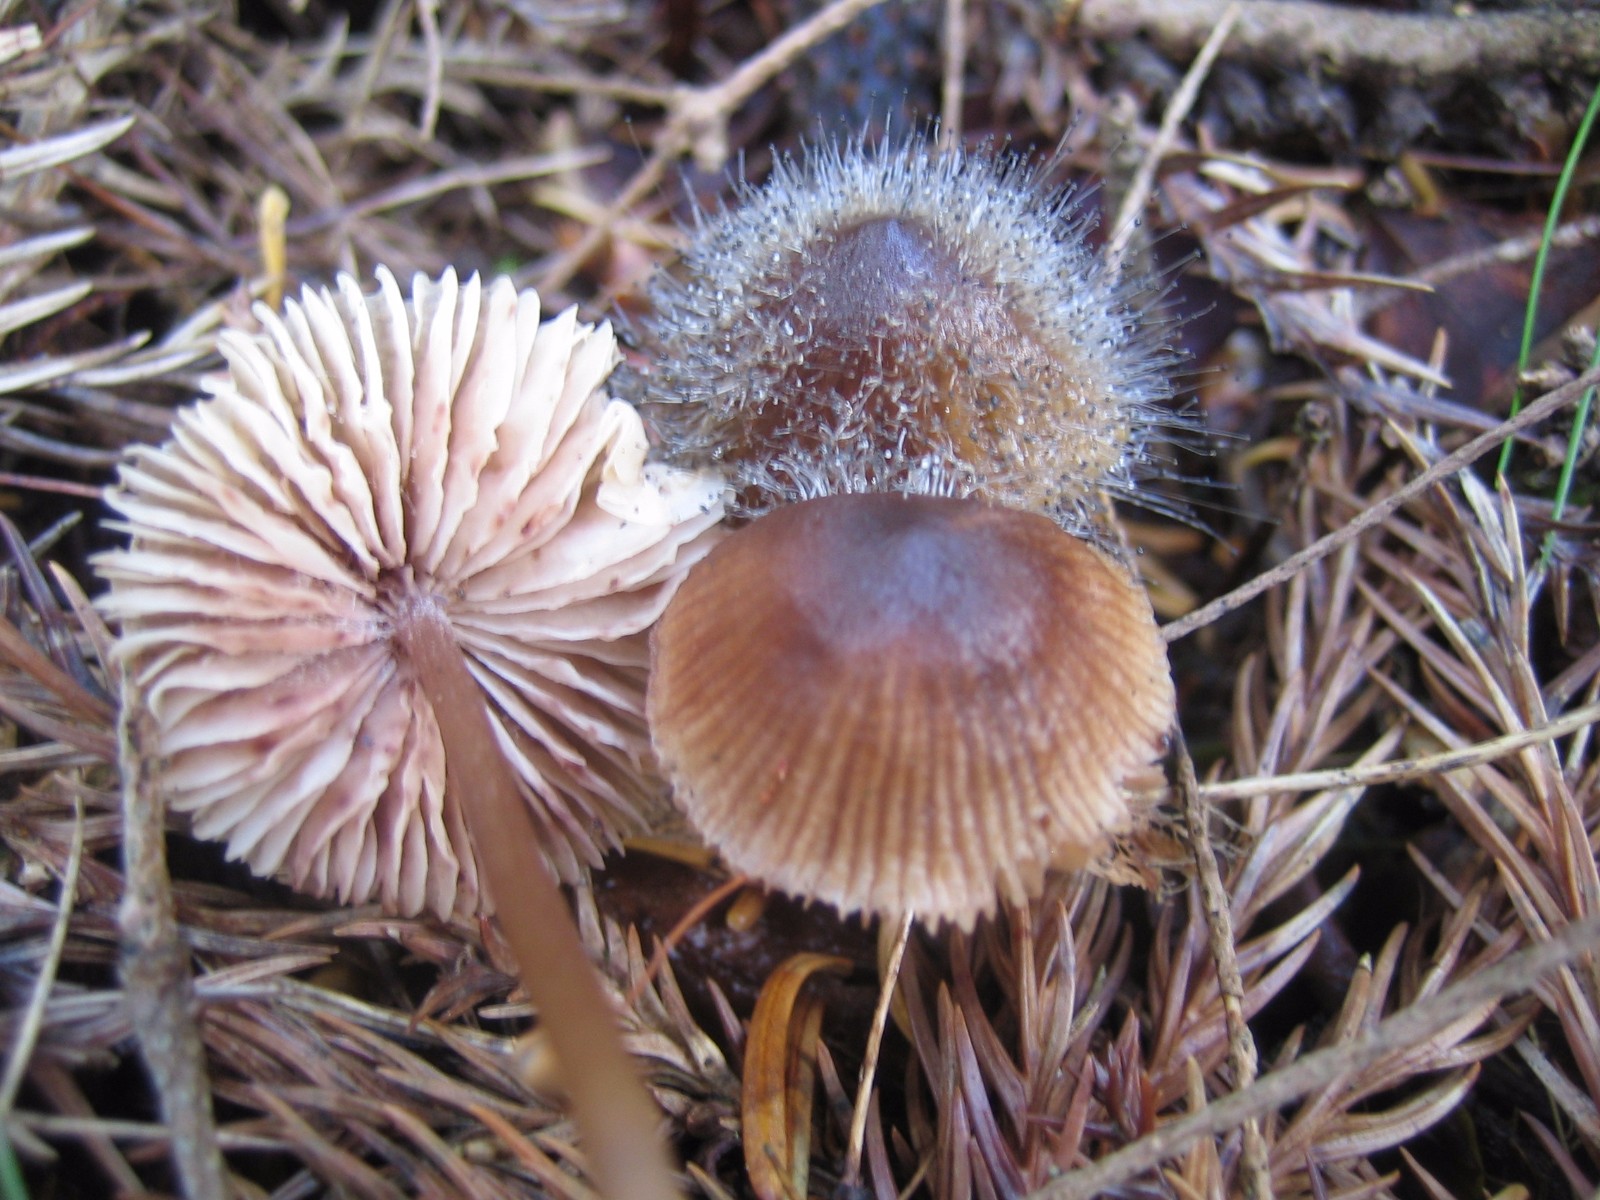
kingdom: Fungi
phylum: Mucoromycota
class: Mucoromycetes
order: Mucorales
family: Phycomycetaceae
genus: Spinellus
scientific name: Spinellus fusiger
